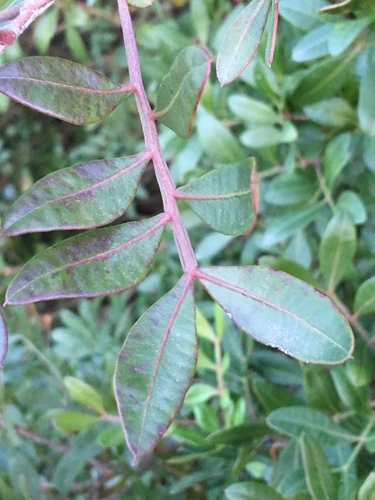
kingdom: Plantae
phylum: Tracheophyta
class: Magnoliopsida
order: Sapindales
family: Anacardiaceae
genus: Pistacia
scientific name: Pistacia lentiscus
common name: Lentisk
